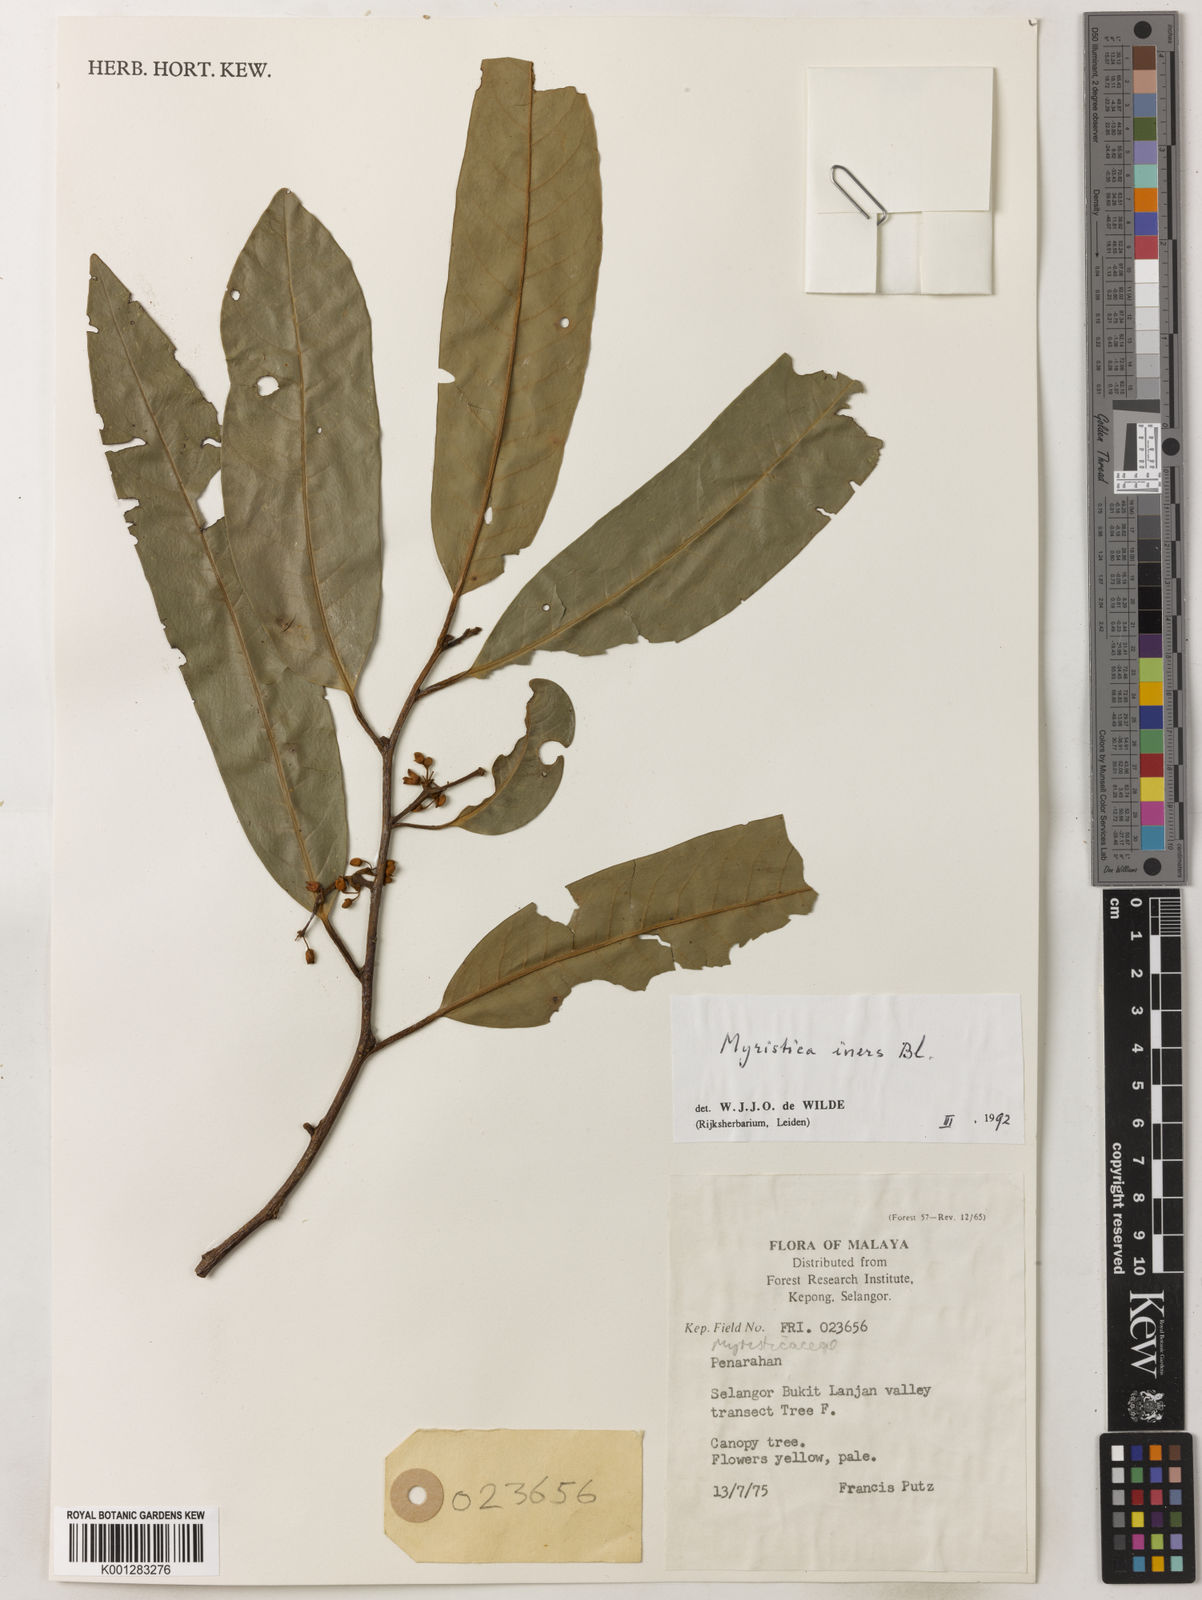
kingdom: Plantae
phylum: Tracheophyta
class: Magnoliopsida
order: Magnoliales
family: Myristicaceae
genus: Myristica
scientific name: Myristica iners
